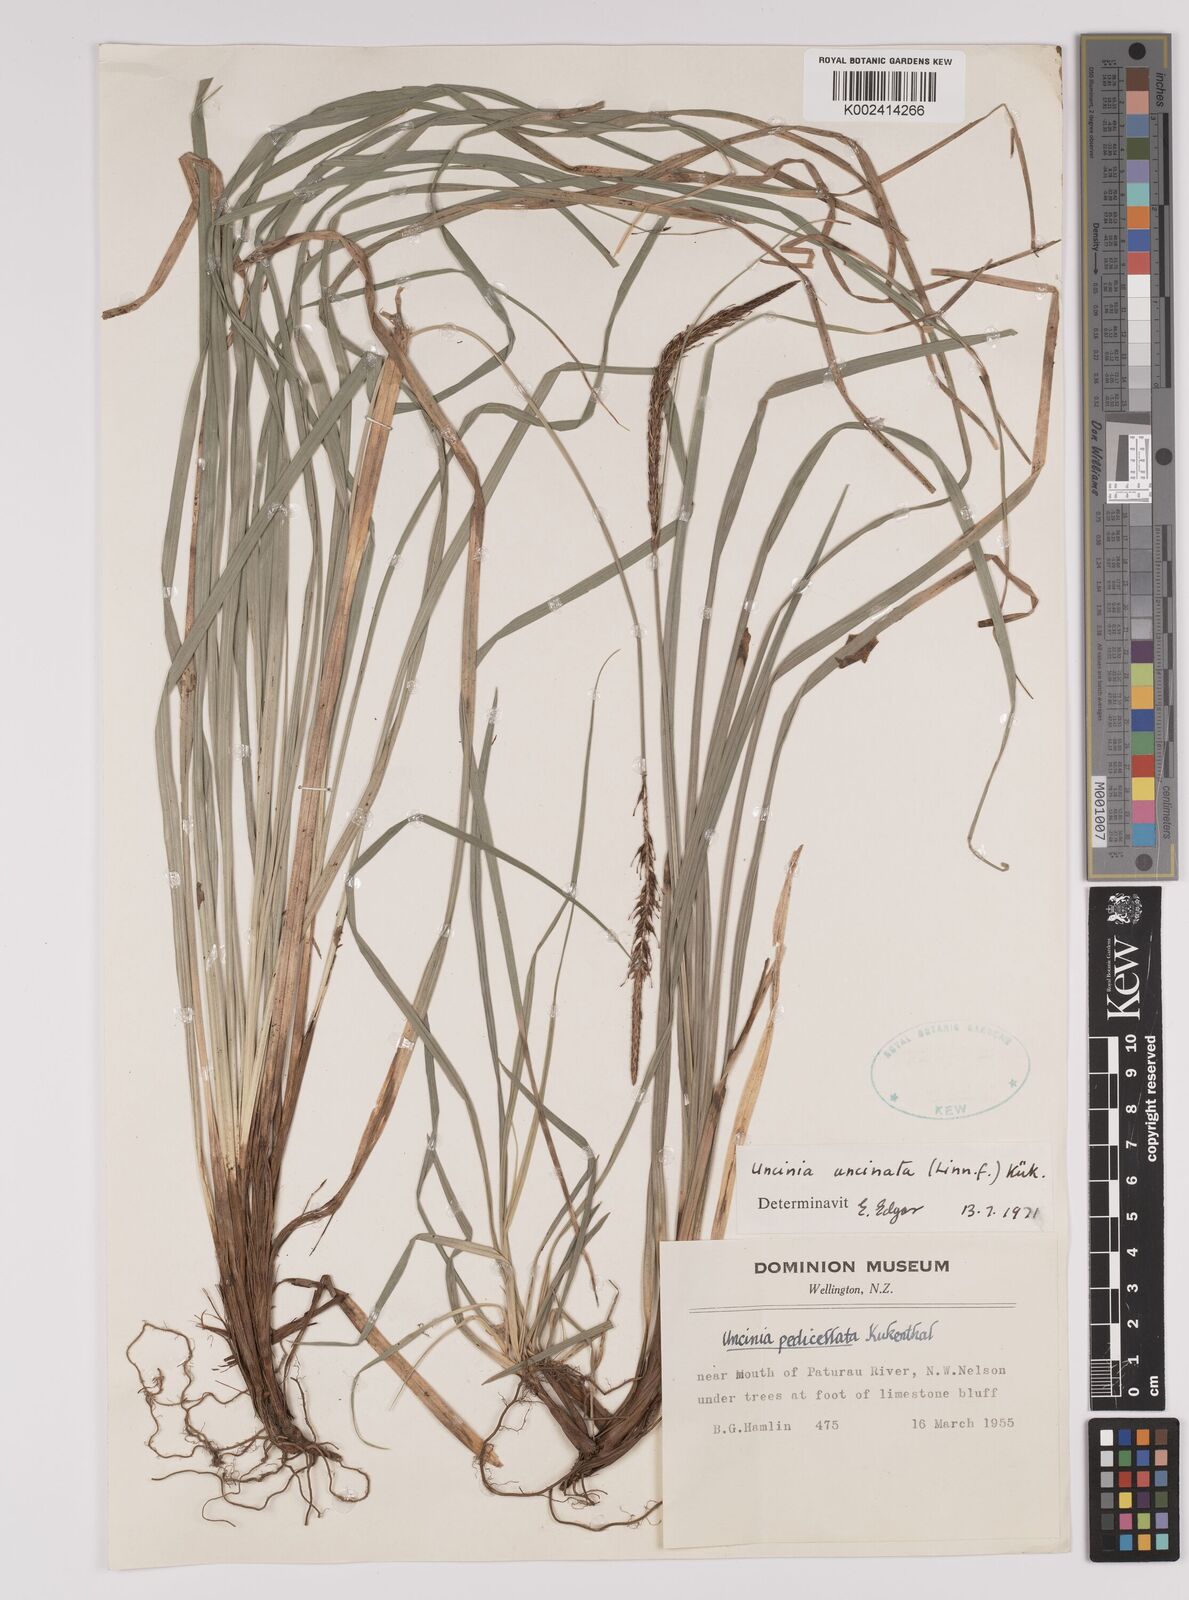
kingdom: Plantae
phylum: Tracheophyta
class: Liliopsida
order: Poales
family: Cyperaceae
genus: Carex
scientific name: Carex uncinata
